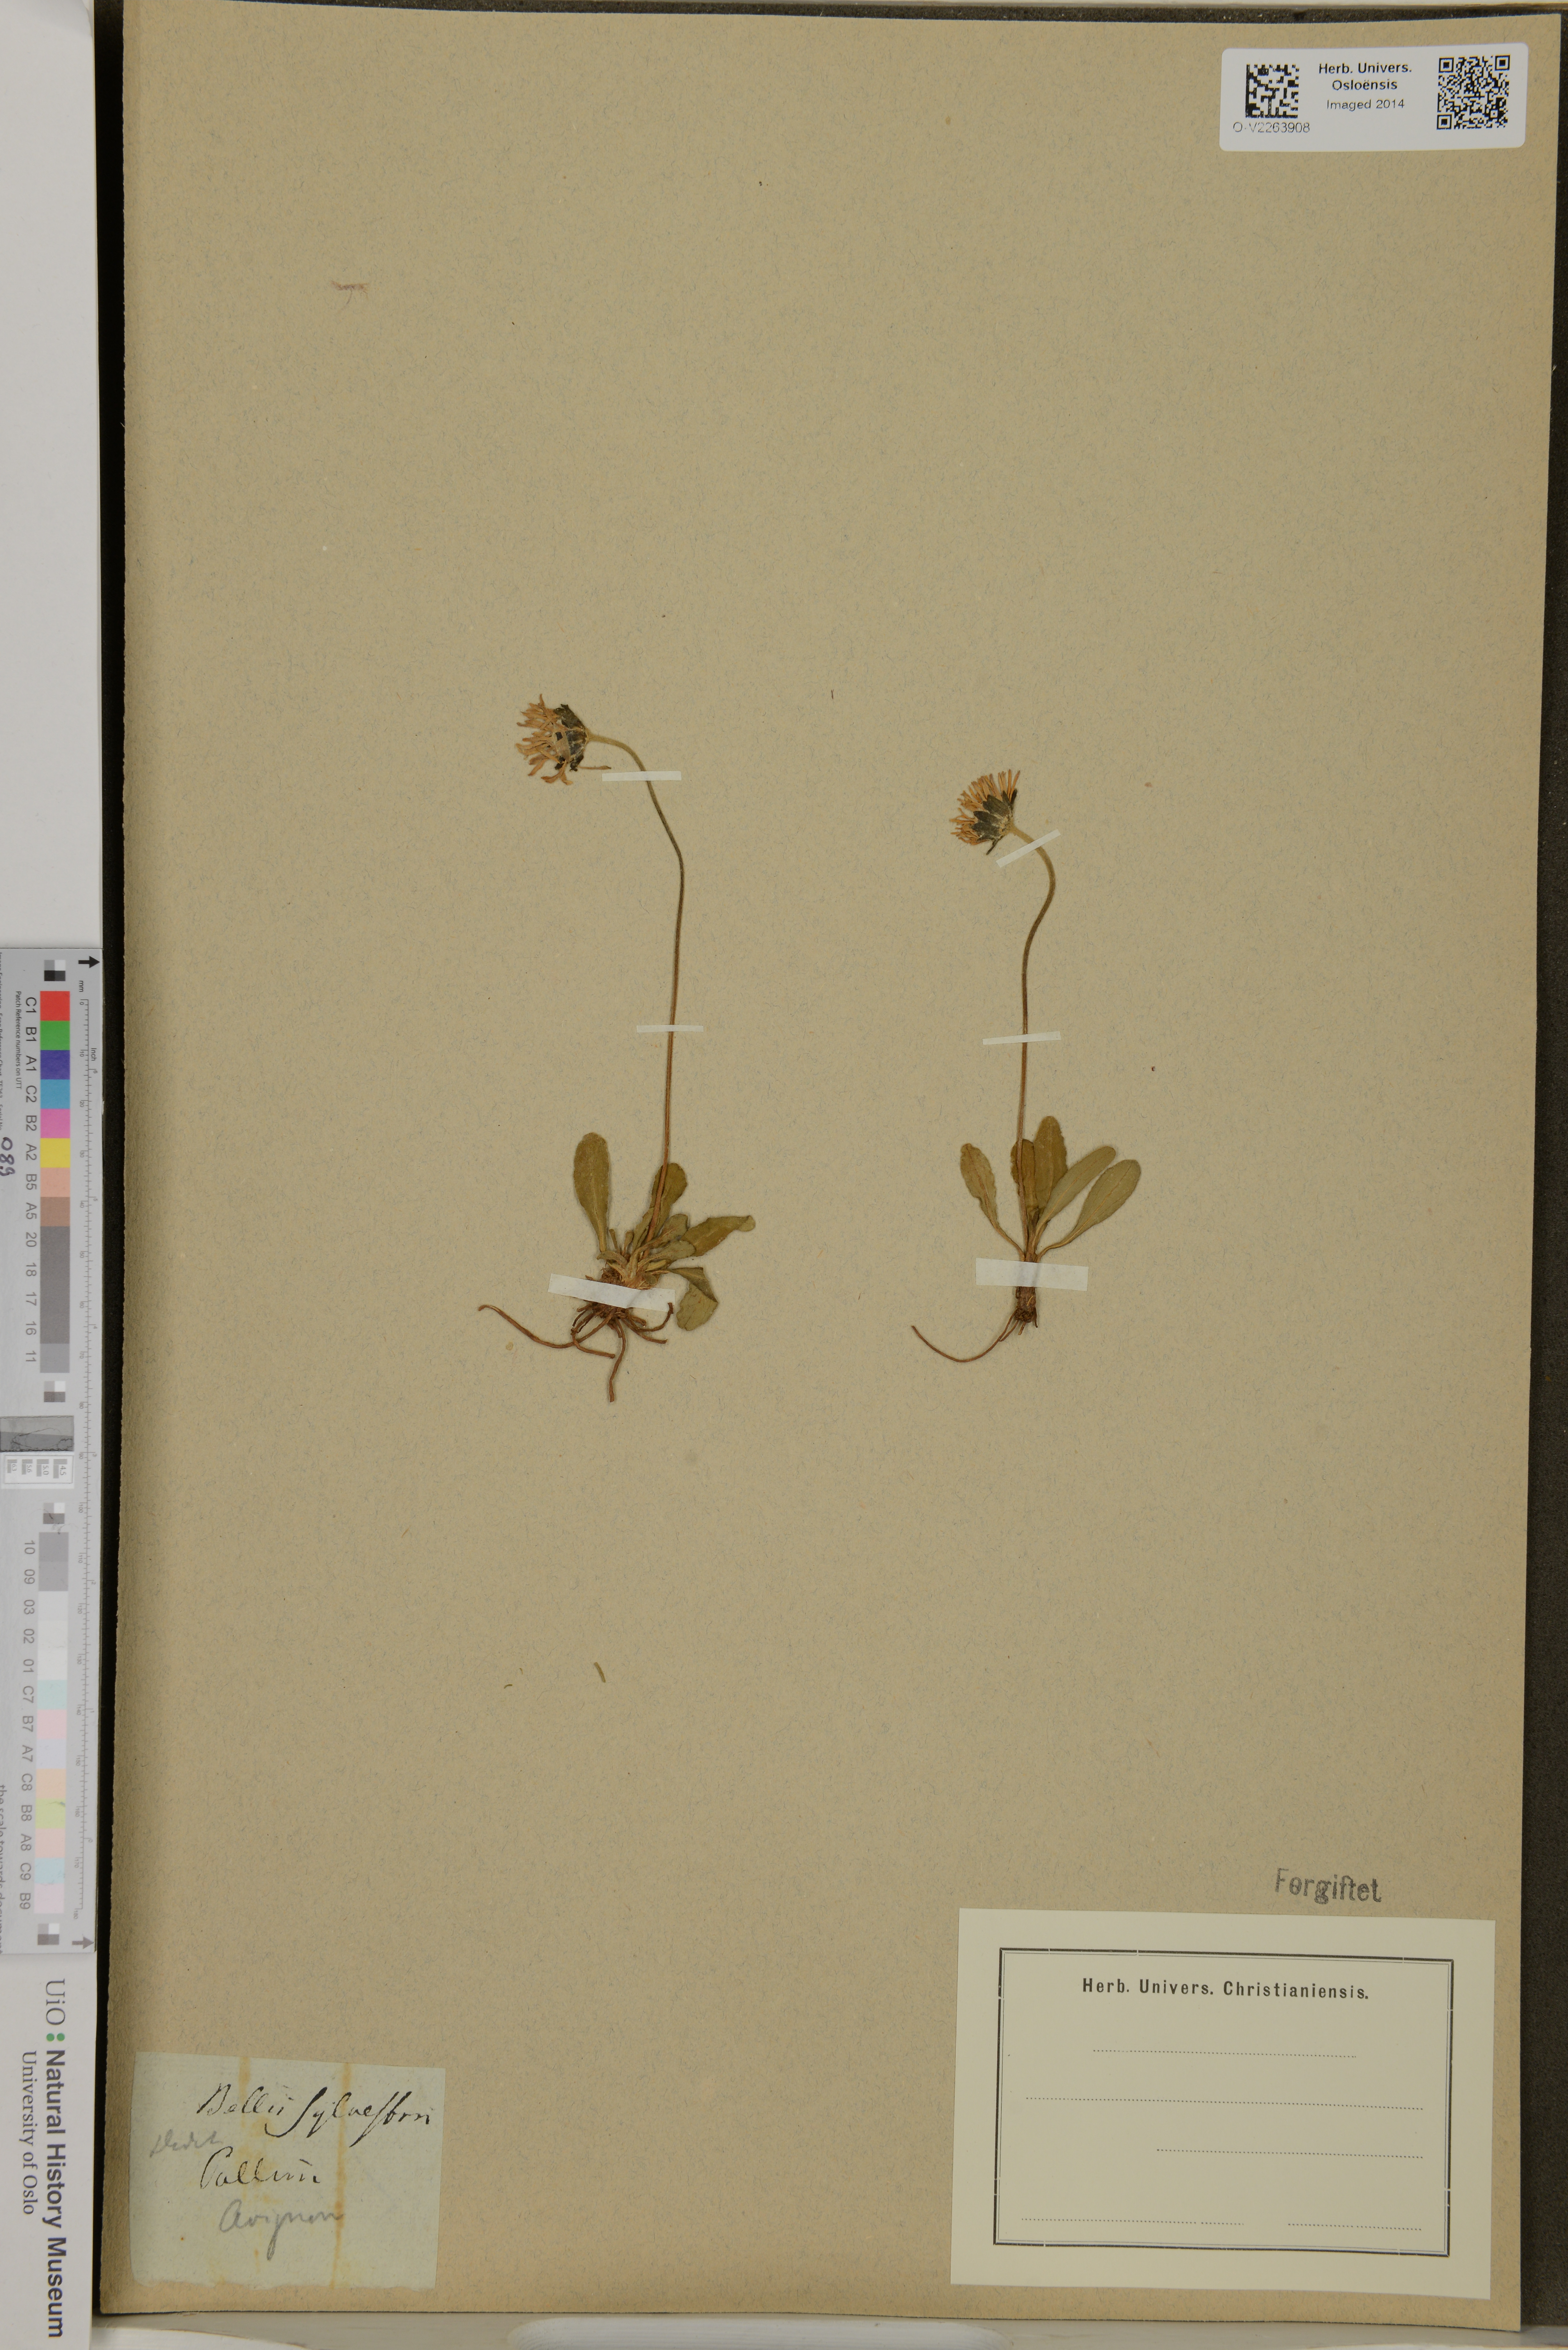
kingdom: Plantae
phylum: Tracheophyta
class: Magnoliopsida
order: Asterales
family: Asteraceae
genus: Bellis
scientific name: Bellis sylvestris
